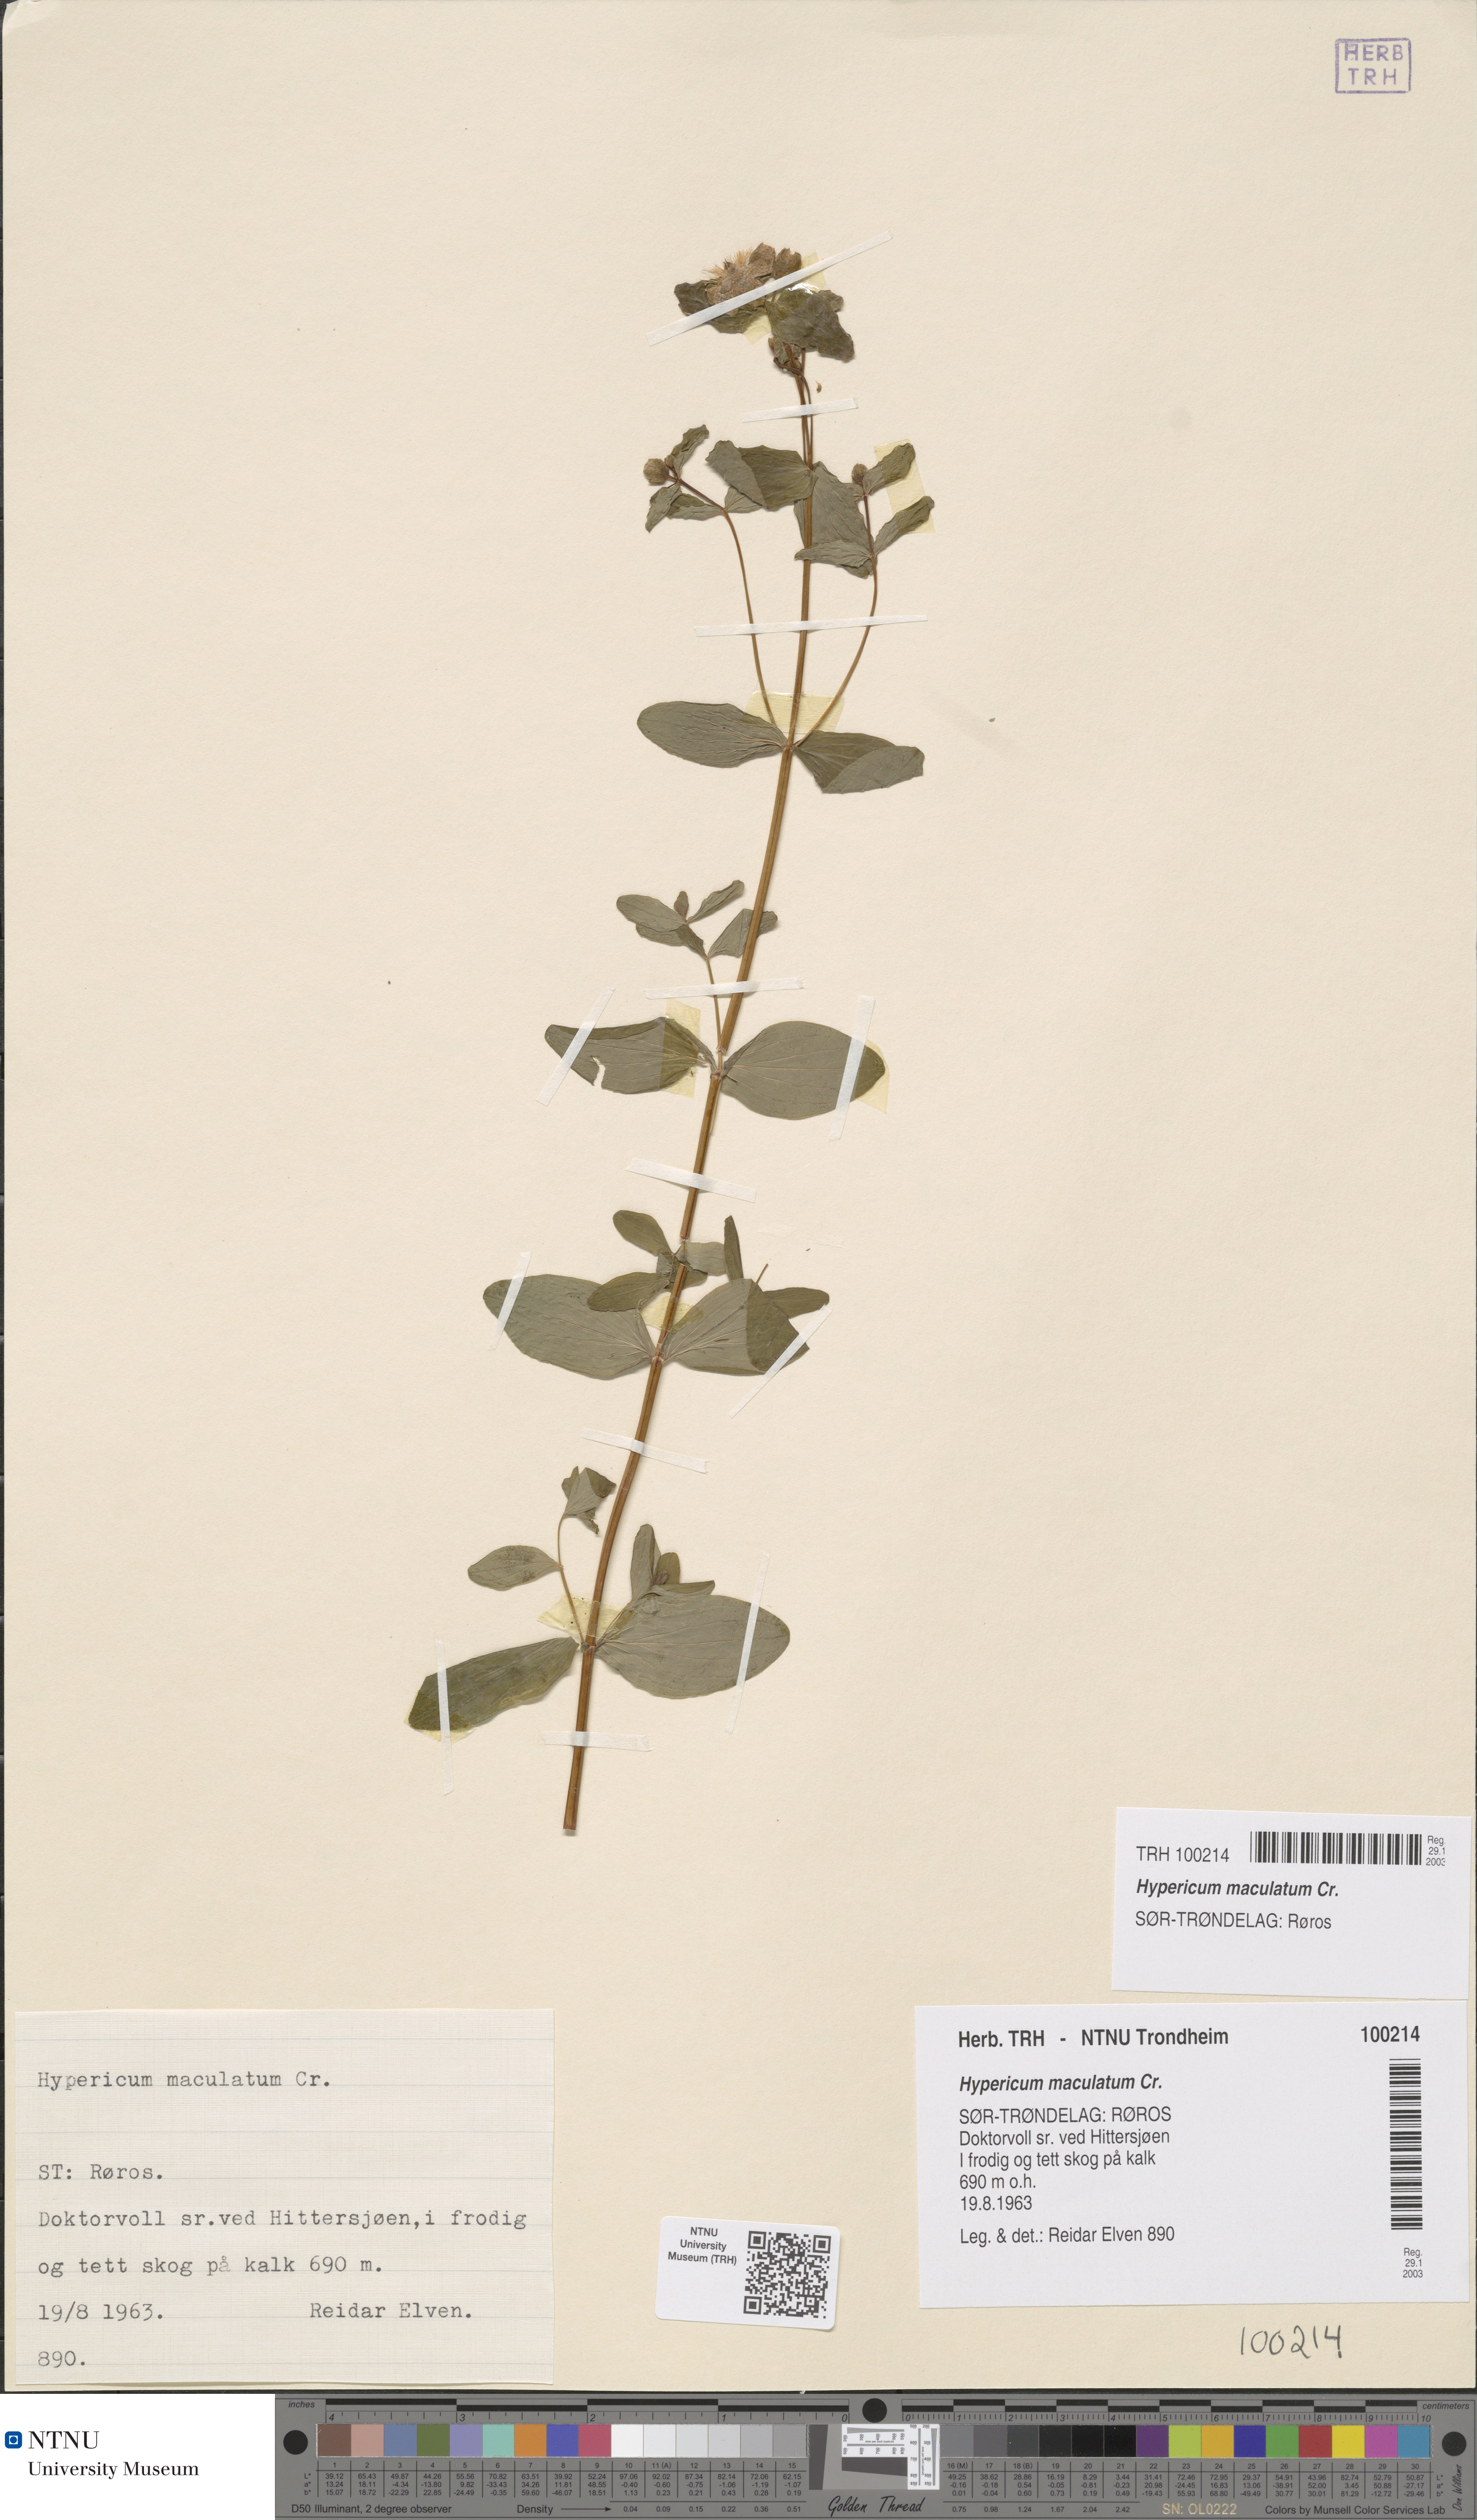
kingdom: Plantae
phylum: Tracheophyta
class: Magnoliopsida
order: Malpighiales
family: Hypericaceae
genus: Hypericum
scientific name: Hypericum maculatum
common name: Imperforate st. john's-wort
